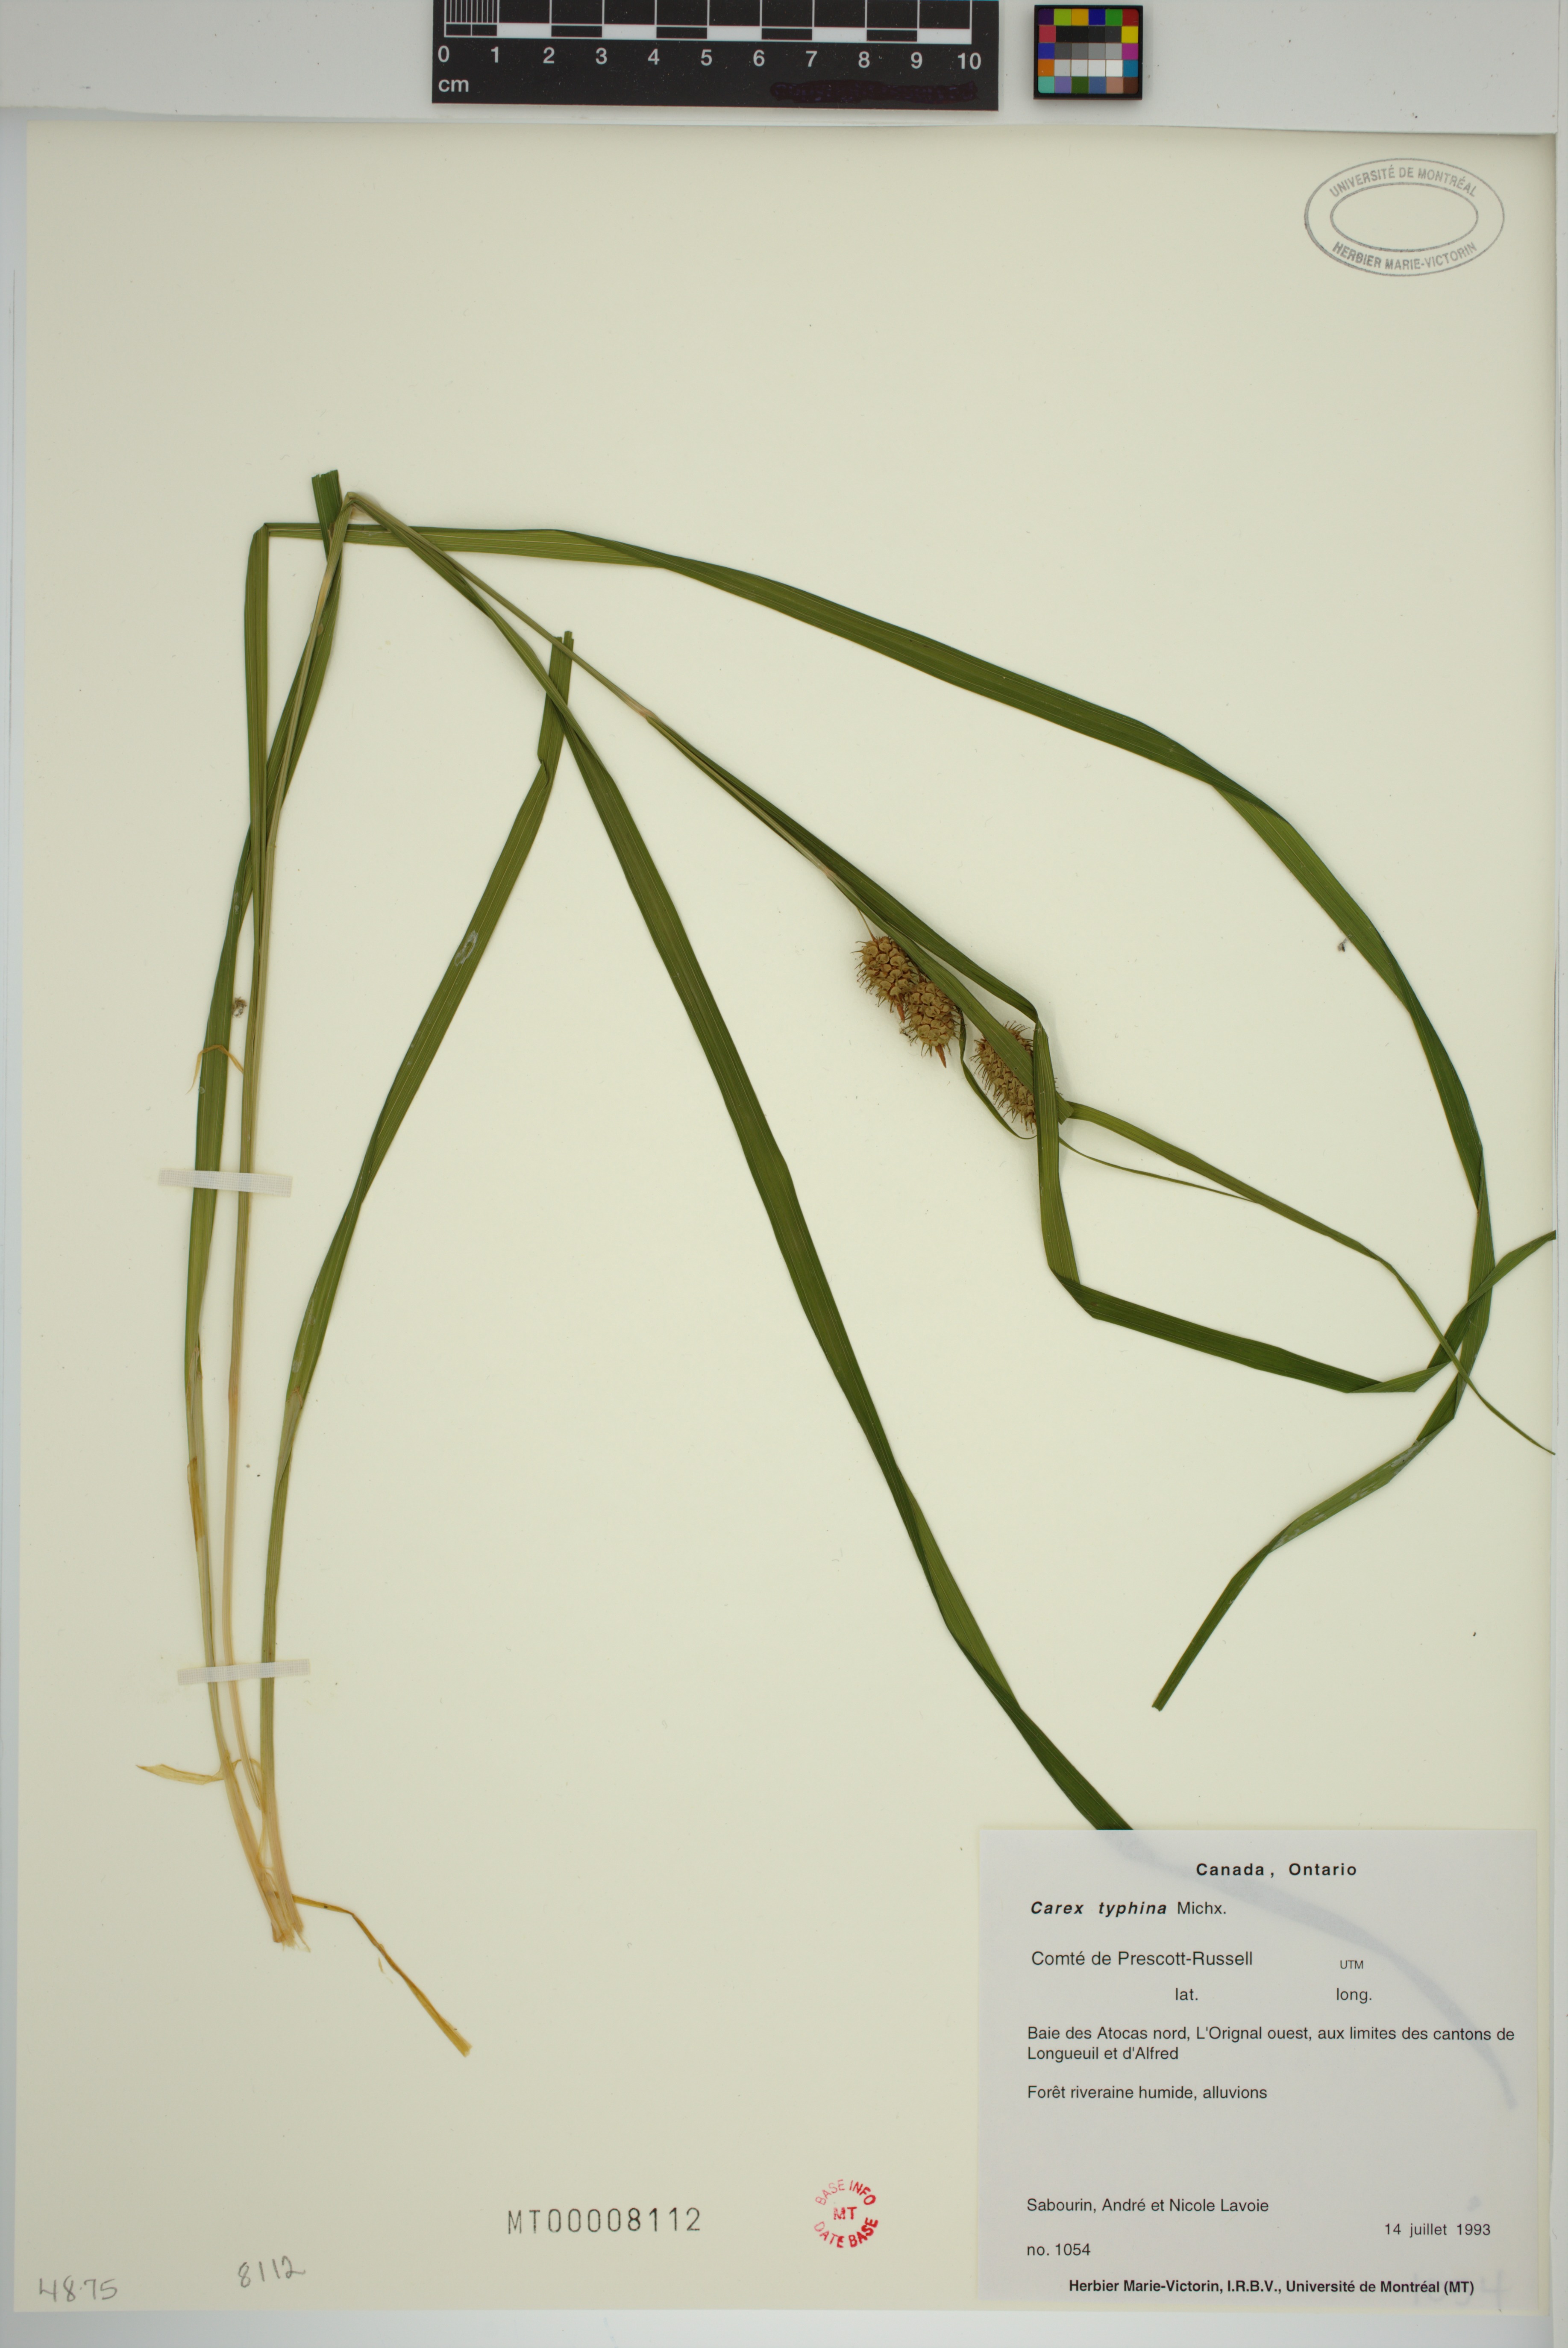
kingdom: Plantae
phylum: Tracheophyta
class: Liliopsida
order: Poales
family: Cyperaceae
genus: Carex
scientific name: Carex typhina
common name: Cattail sedge
